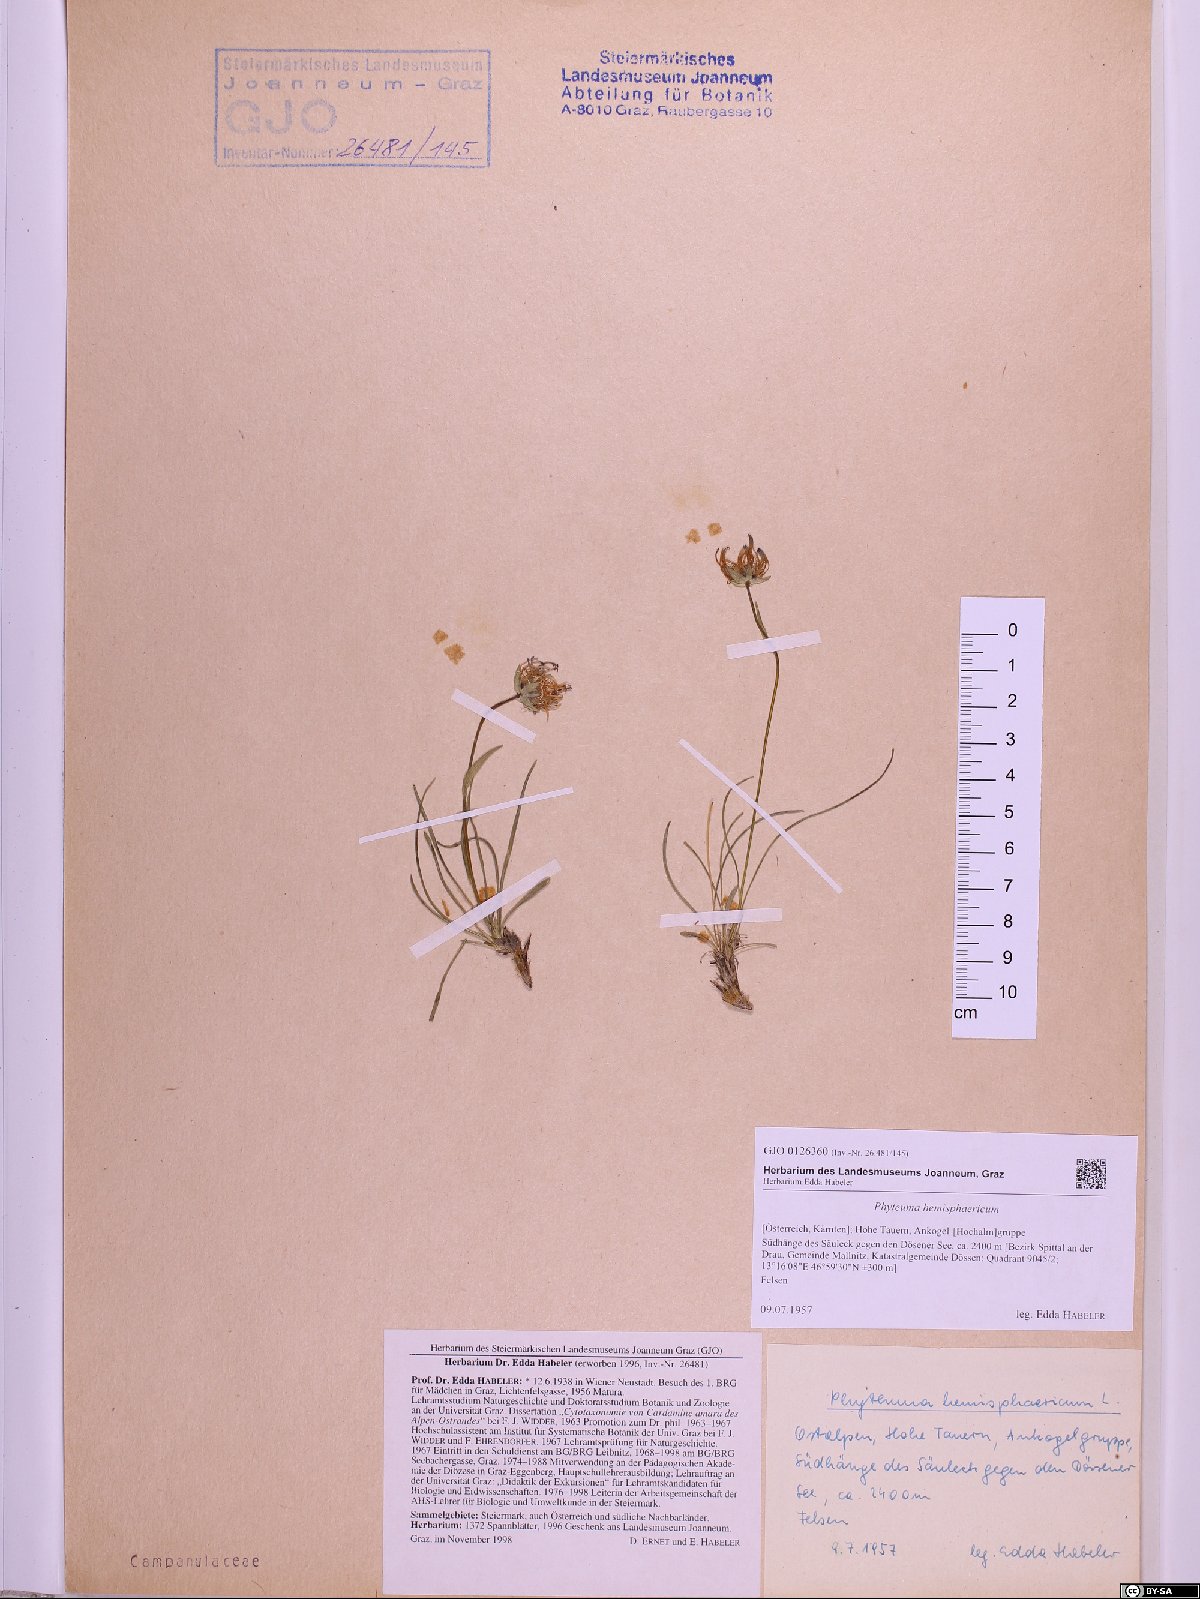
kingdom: Plantae
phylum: Tracheophyta
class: Magnoliopsida
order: Asterales
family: Campanulaceae
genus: Phyteuma
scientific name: Phyteuma hemisphaericum
